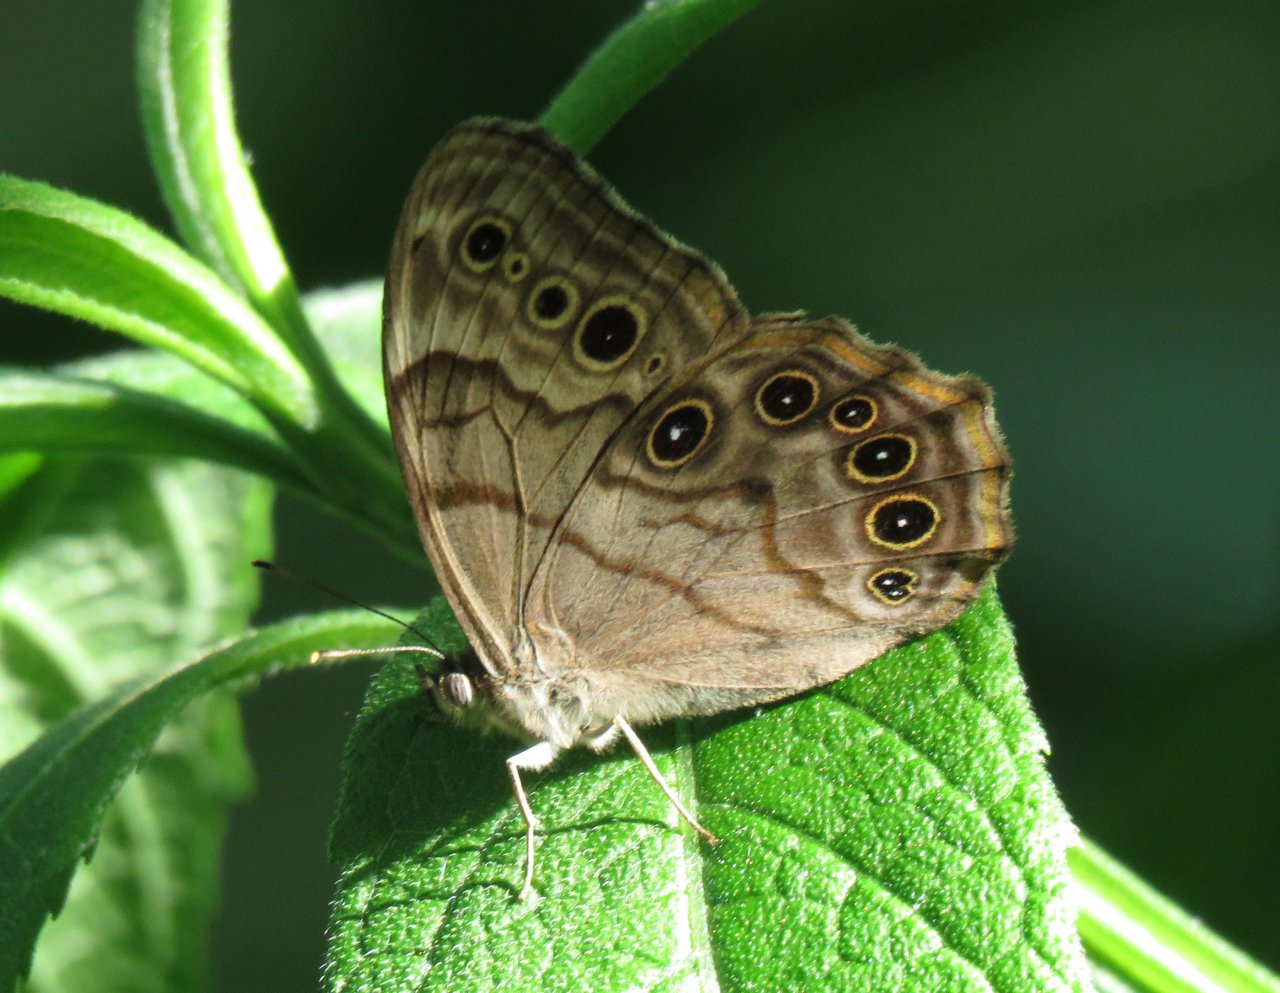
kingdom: Animalia
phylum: Arthropoda
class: Insecta
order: Lepidoptera
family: Nymphalidae
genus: Lethe
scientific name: Lethe anthedon
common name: Northern Pearly-Eye
